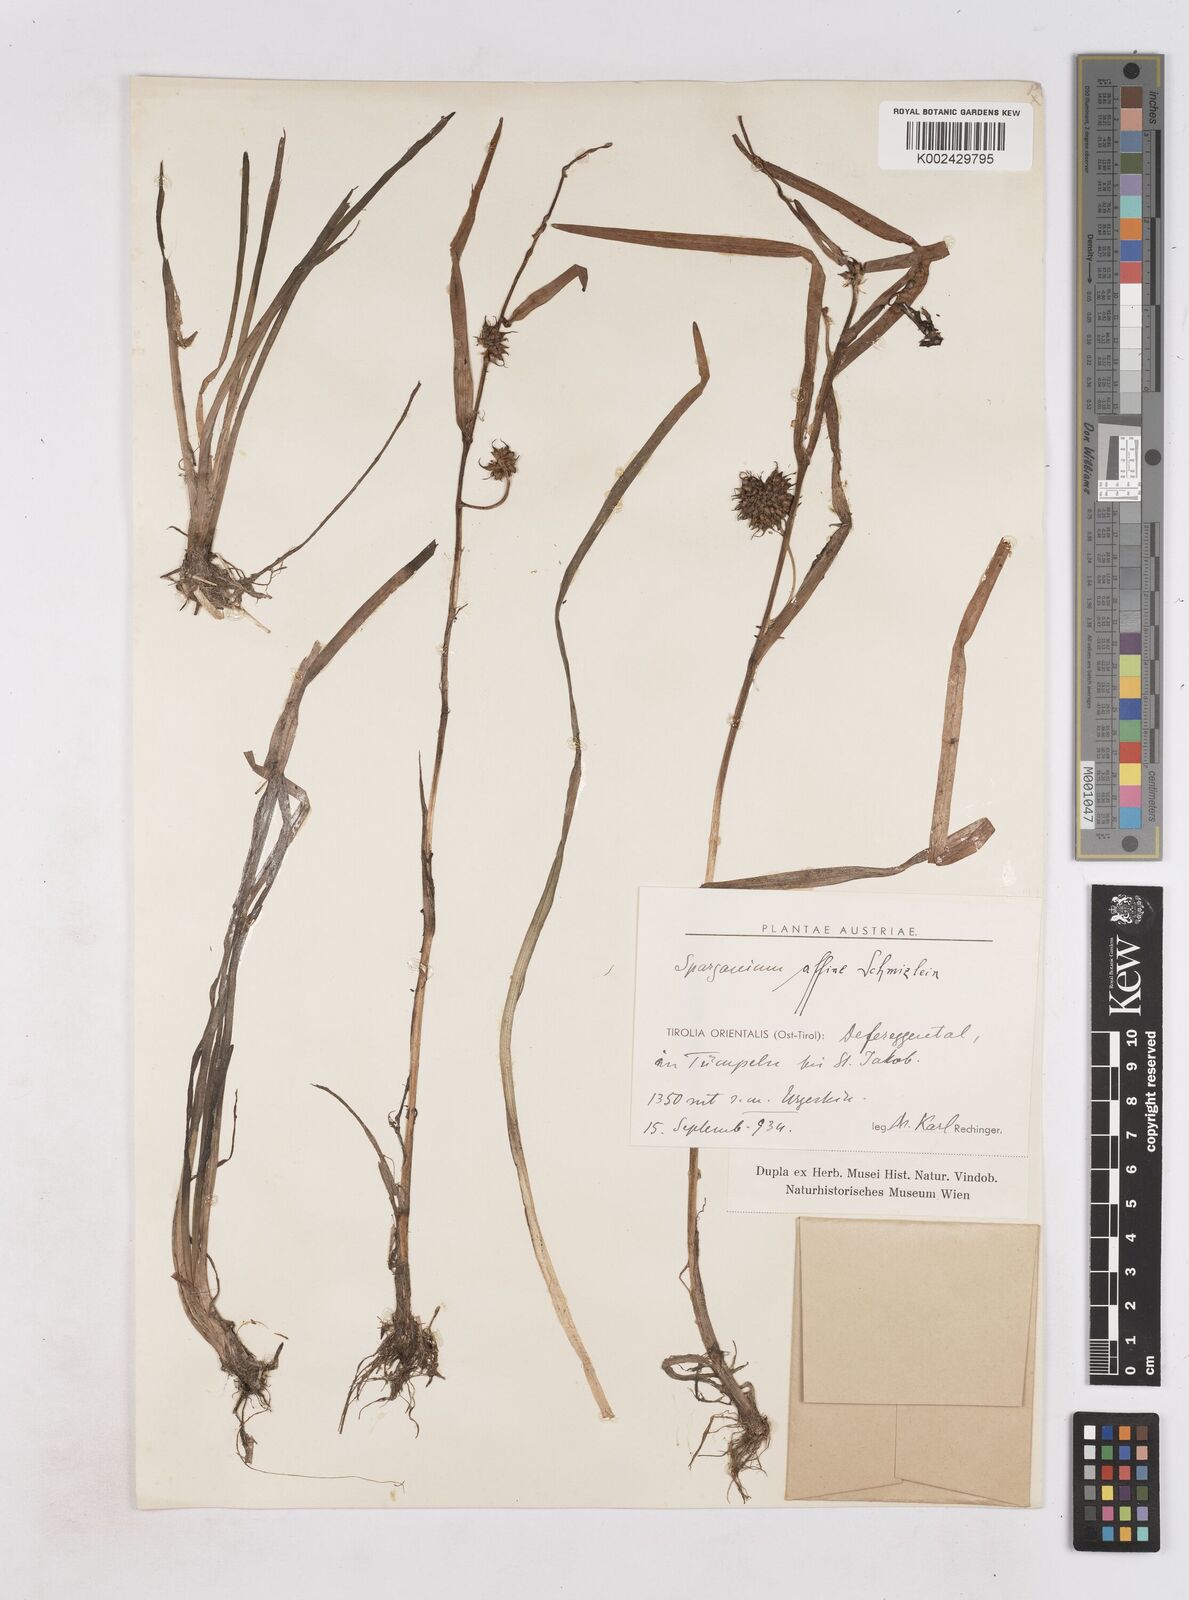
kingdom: Plantae
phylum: Tracheophyta
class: Liliopsida
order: Poales
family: Typhaceae
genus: Sparganium
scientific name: Sparganium angustifolium
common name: Floating bur-reed
